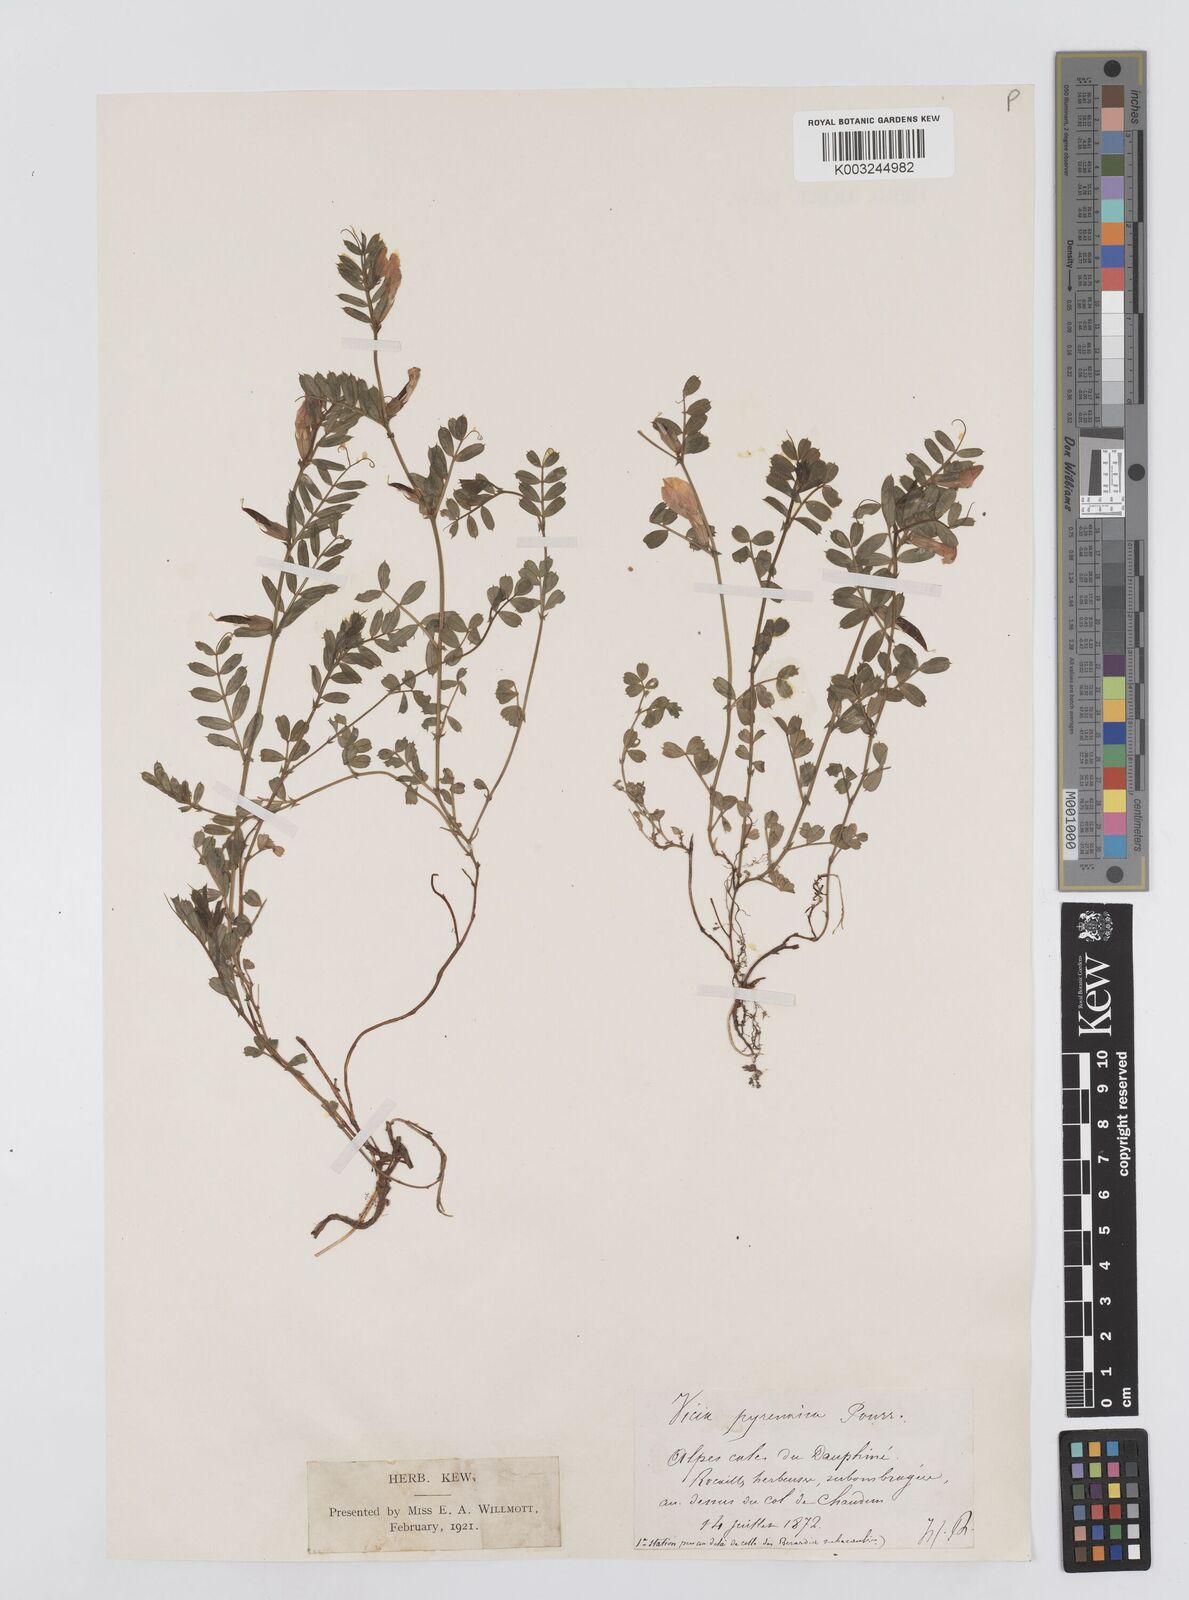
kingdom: Plantae
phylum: Tracheophyta
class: Magnoliopsida
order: Fabales
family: Fabaceae
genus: Vicia
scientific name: Vicia pyrenaica
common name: Pyrenean vetch
